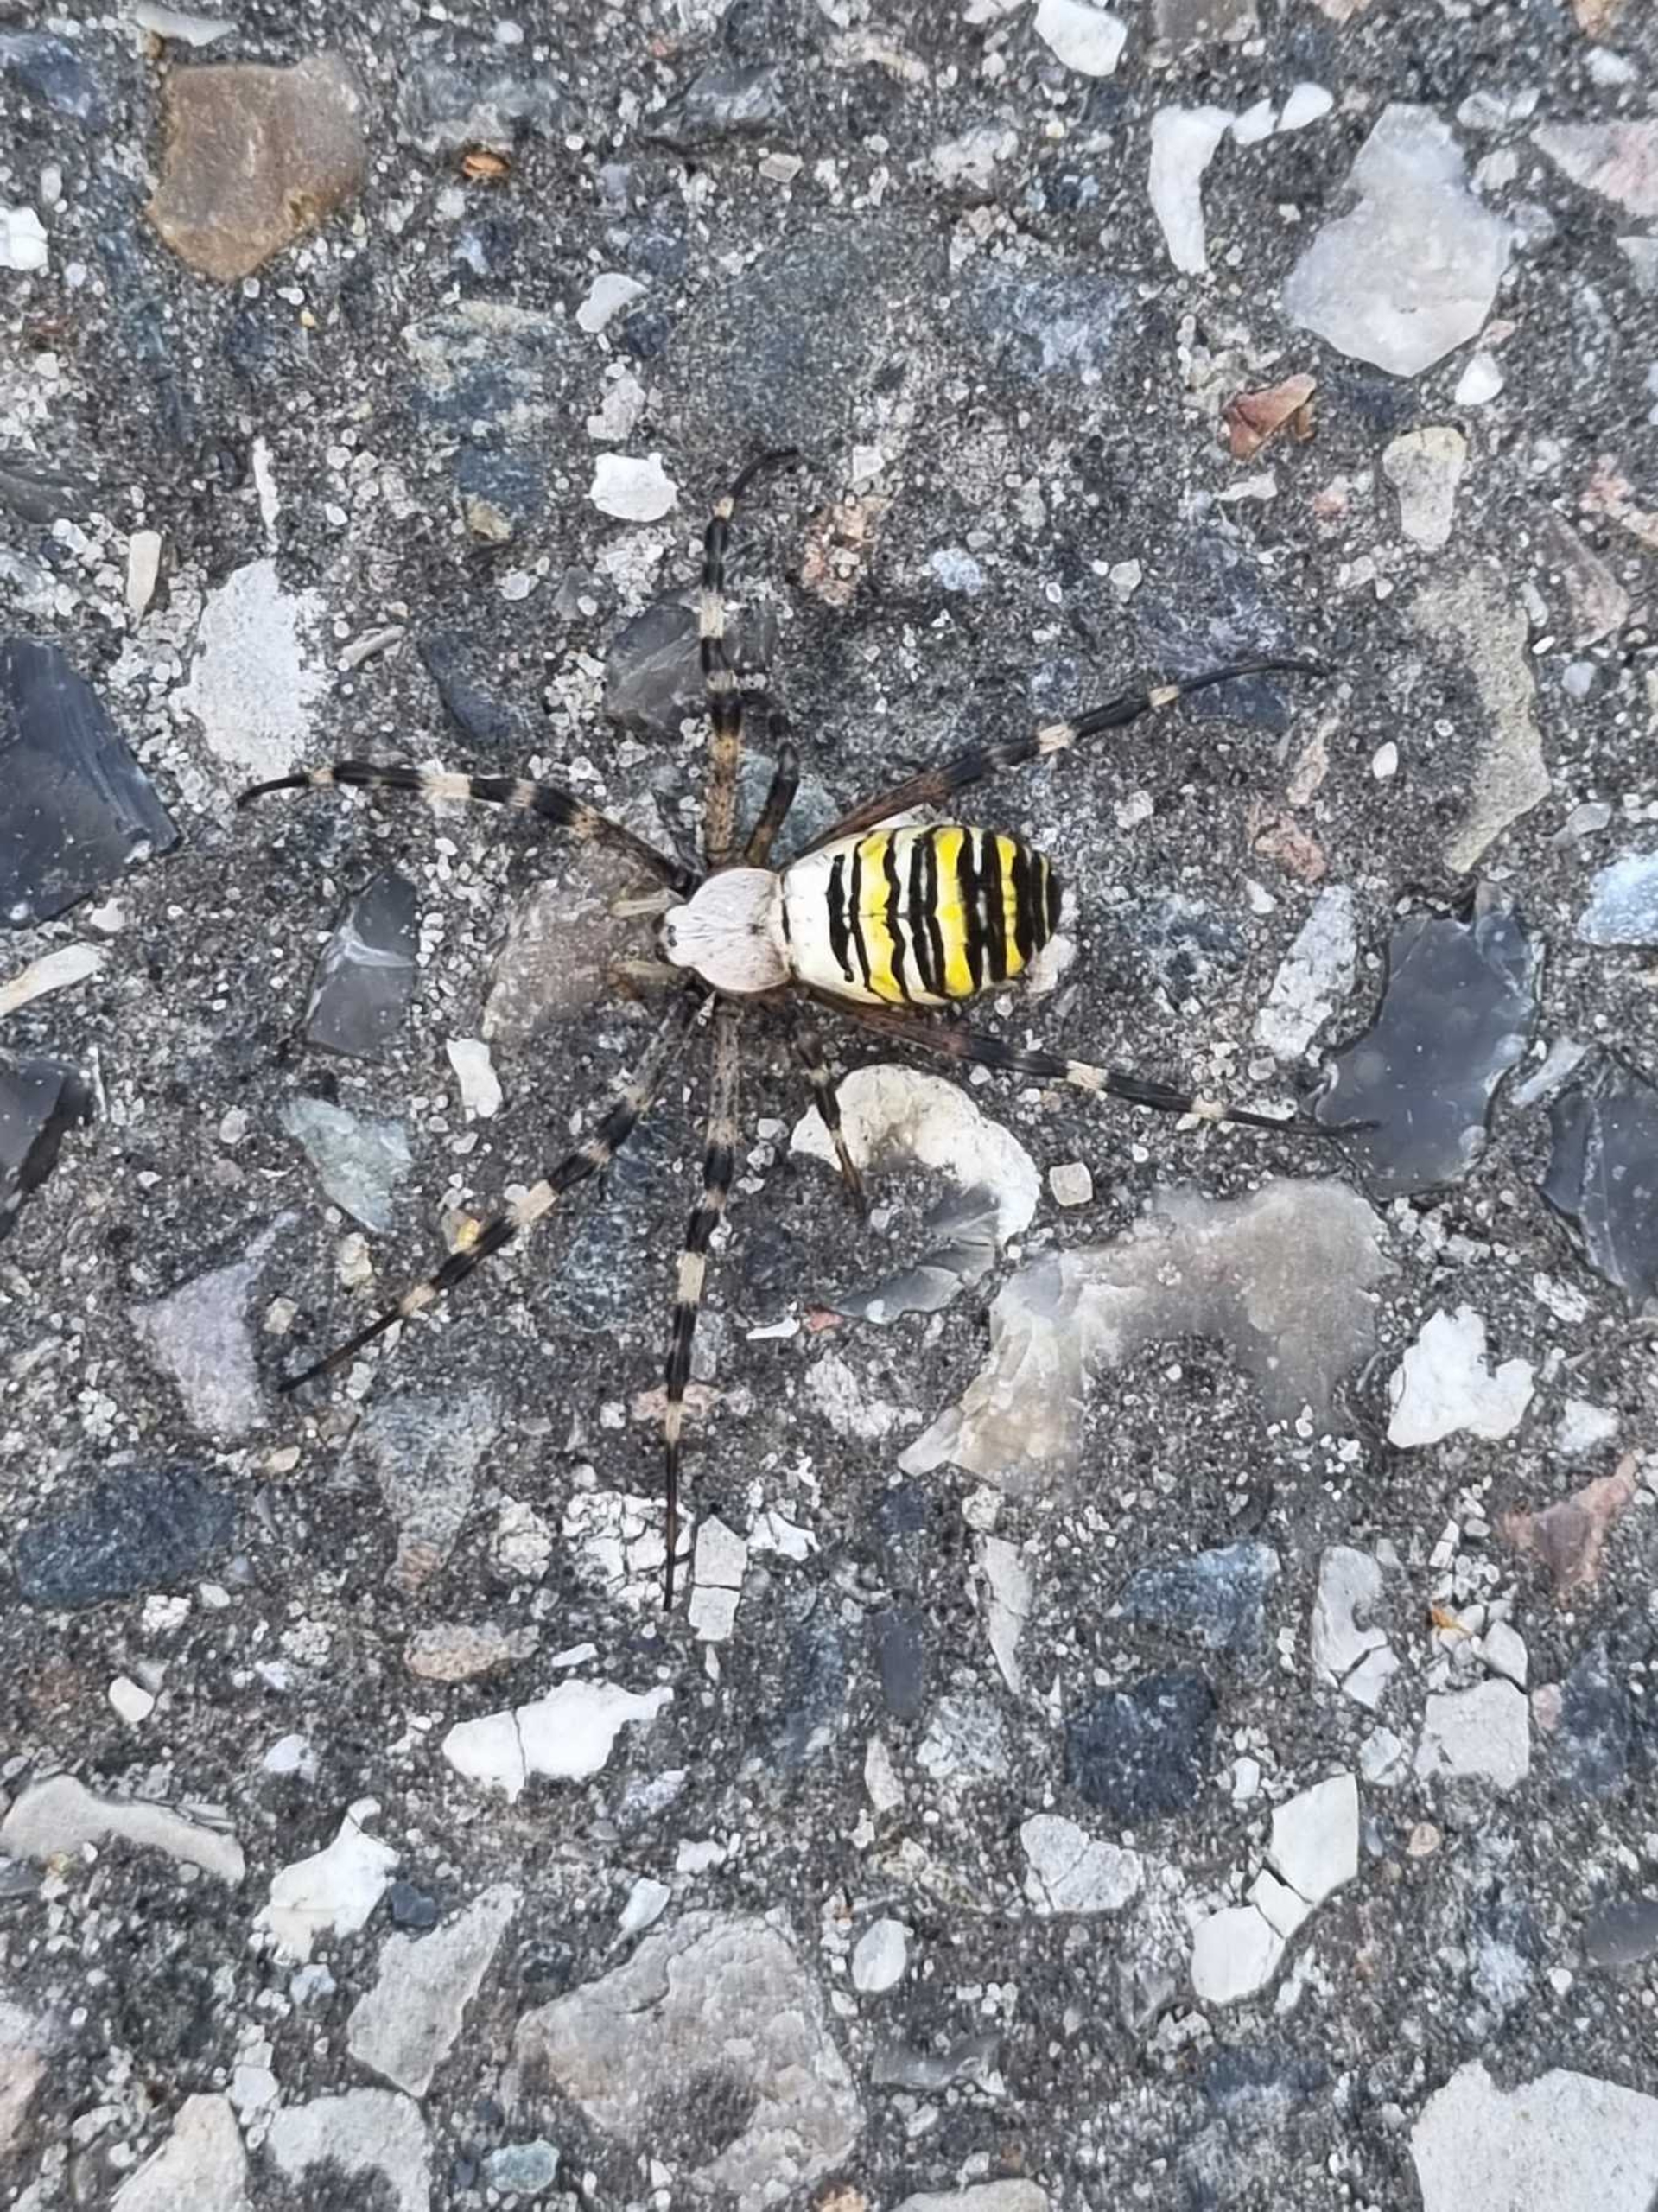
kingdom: Animalia
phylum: Arthropoda
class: Arachnida
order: Araneae
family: Araneidae
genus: Argiope
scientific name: Argiope bruennichi
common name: Hvepseedderkop
